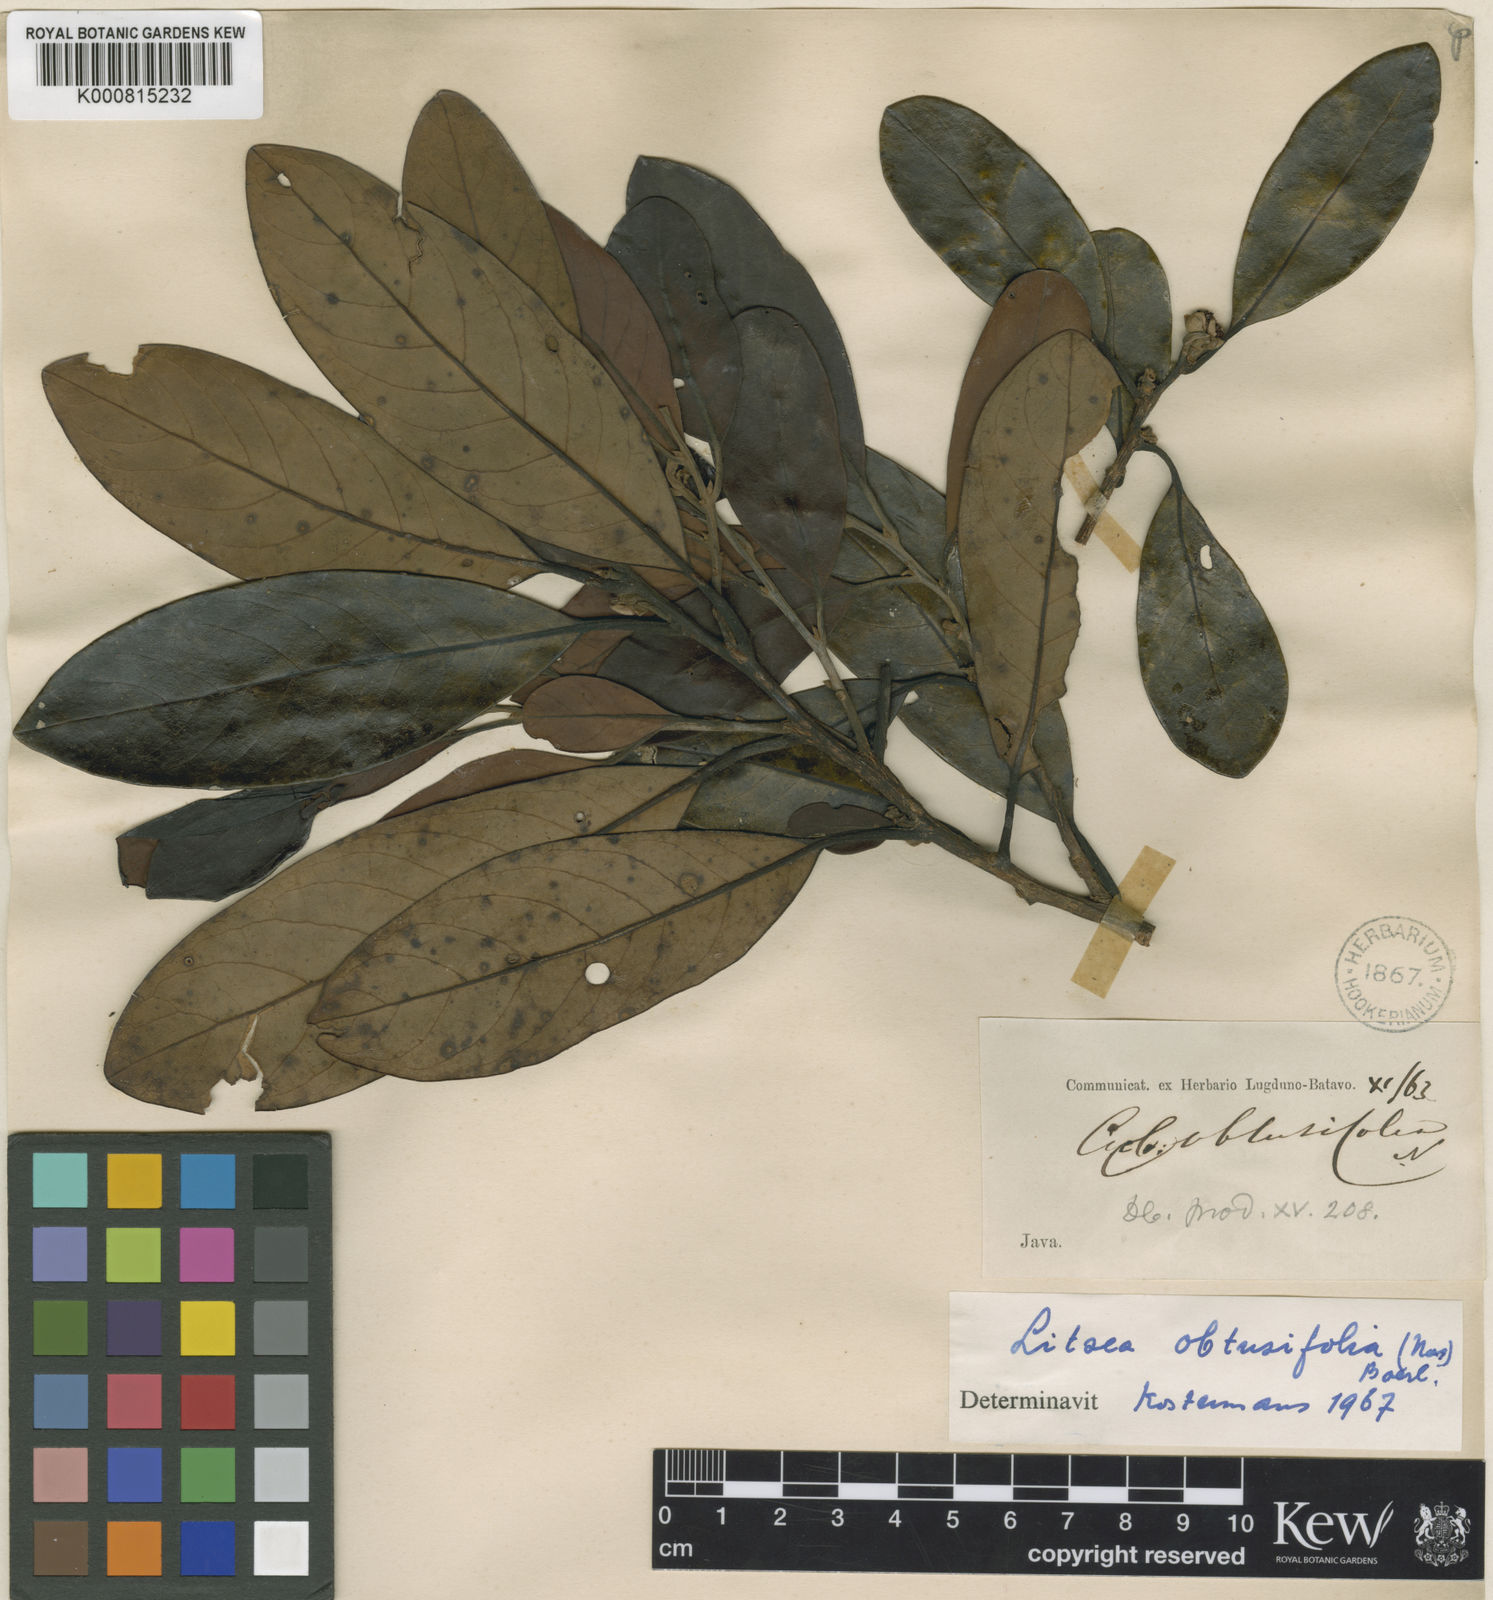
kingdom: Plantae
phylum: Tracheophyta
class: Magnoliopsida
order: Laurales
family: Lauraceae
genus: Litsea
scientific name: Litsea diversifolia
